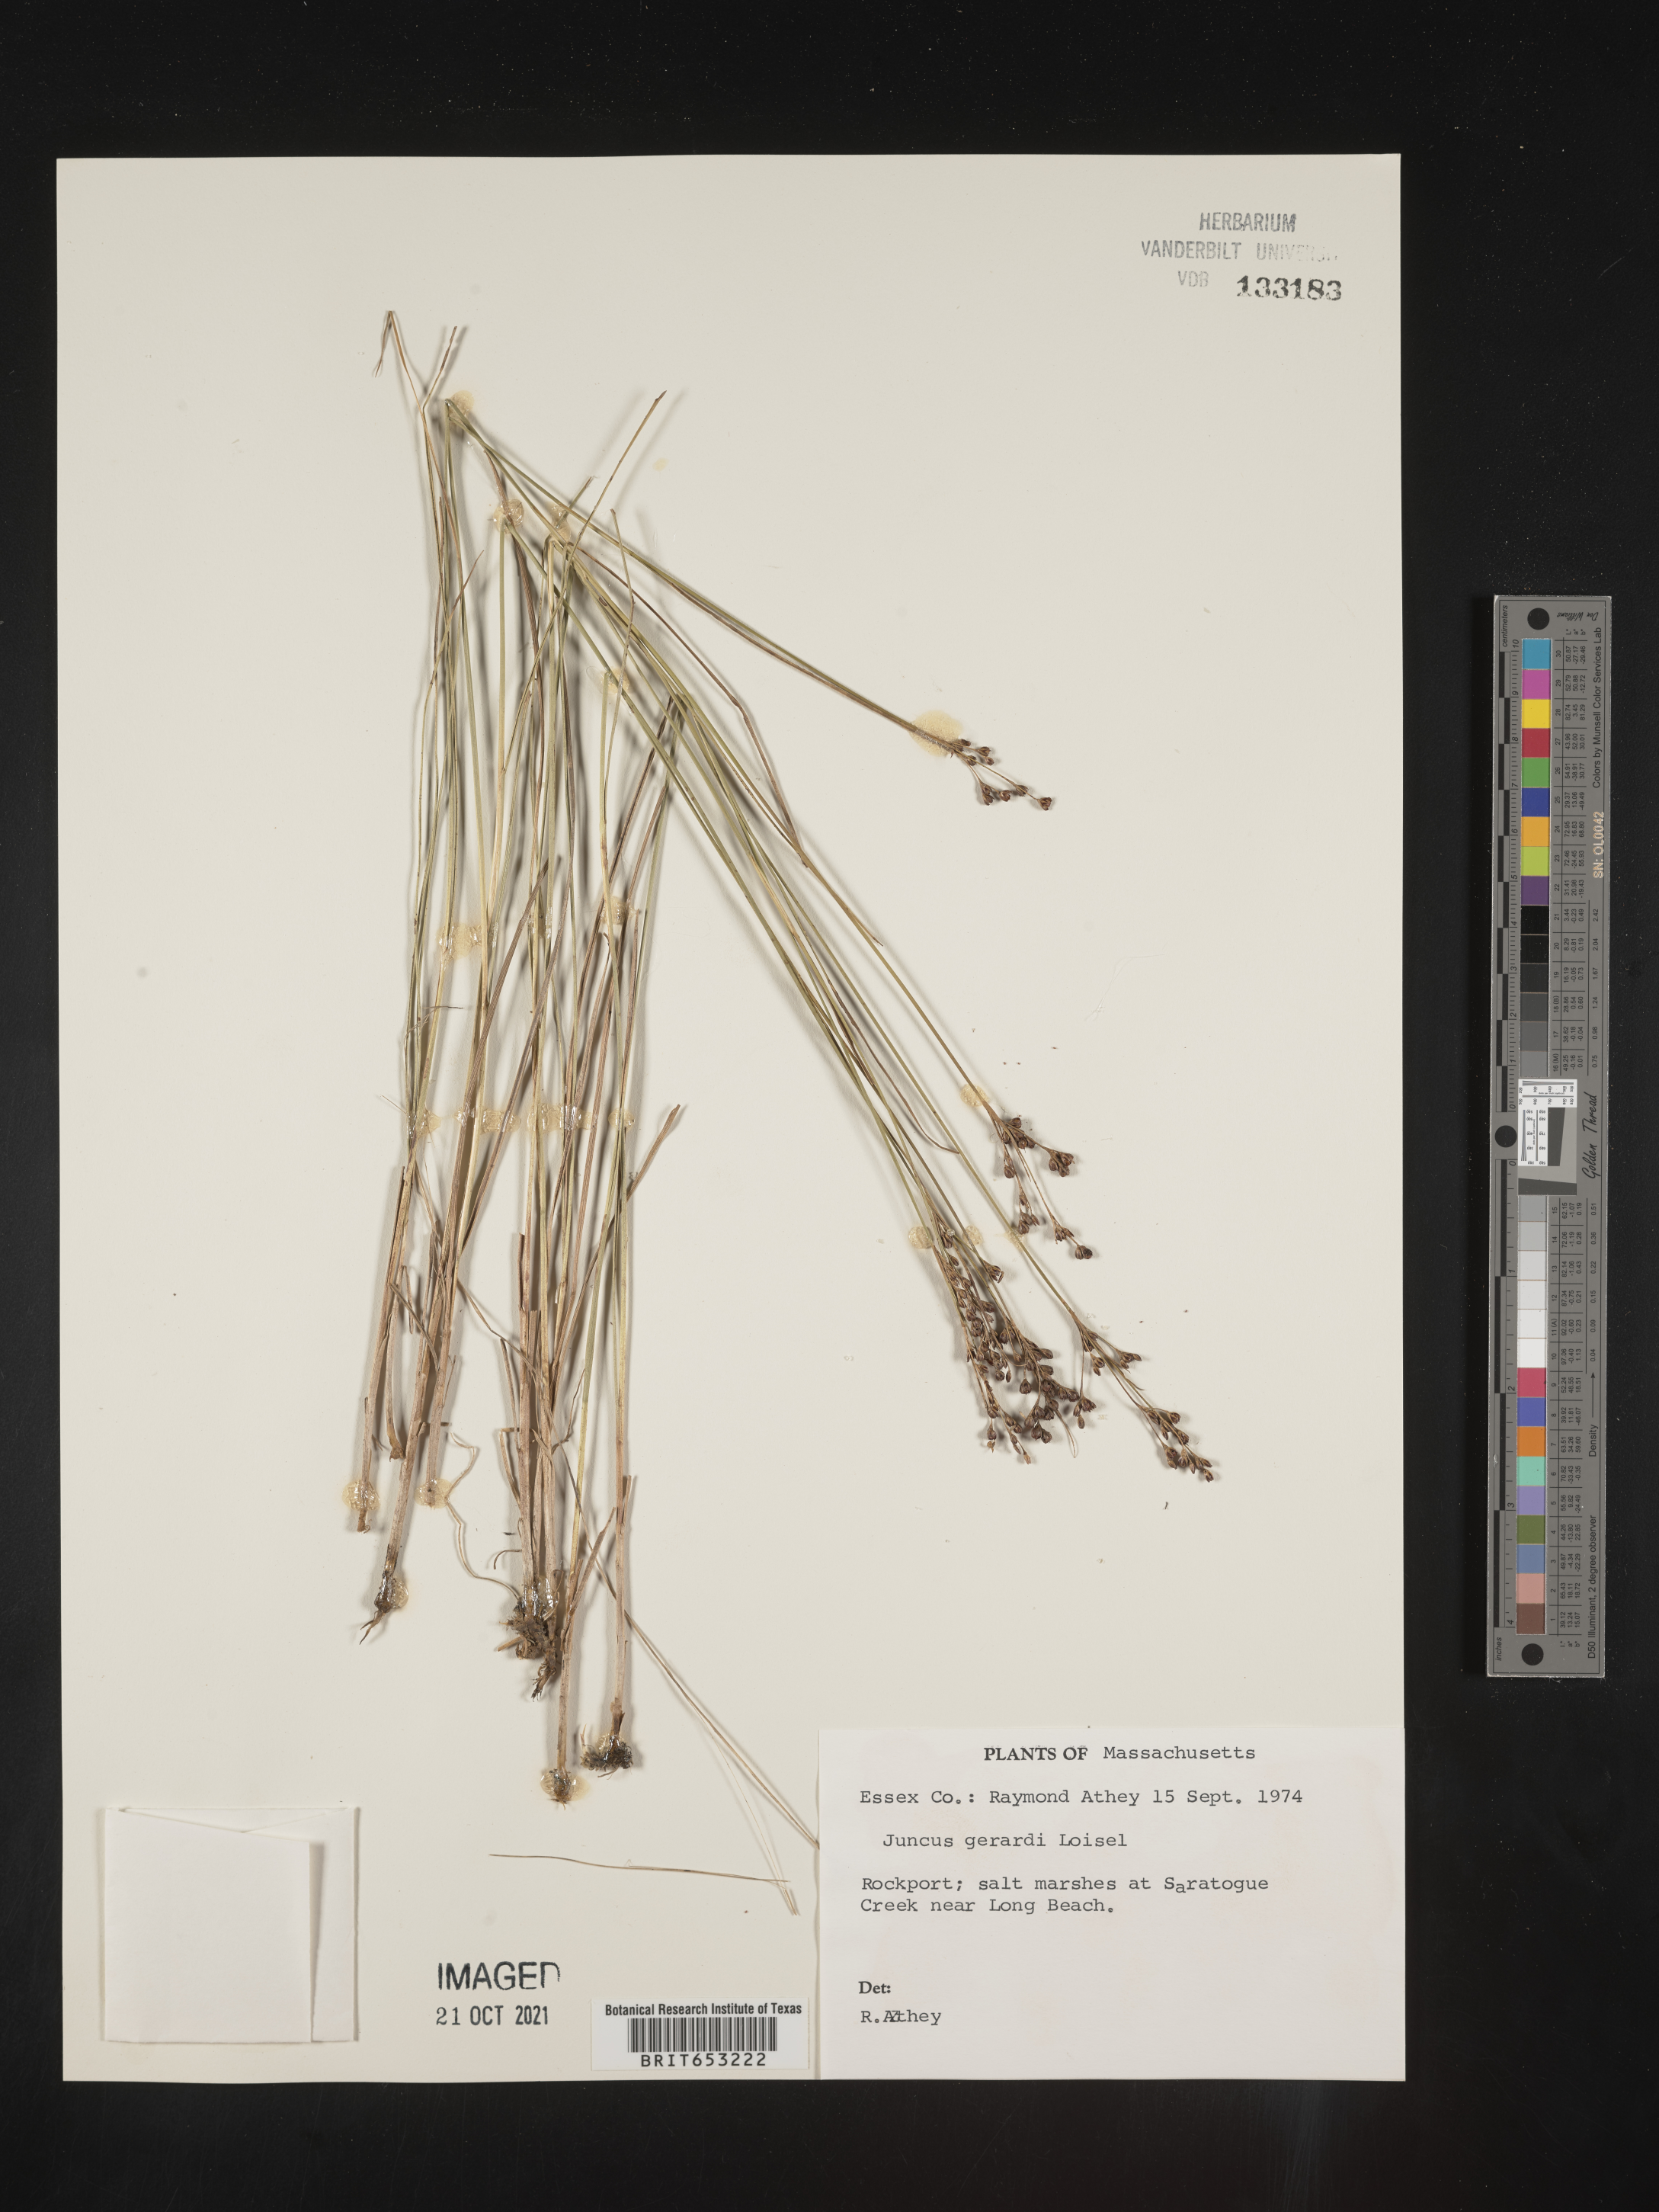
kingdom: Plantae
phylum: Tracheophyta
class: Liliopsida
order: Poales
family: Juncaceae
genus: Juncus
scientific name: Juncus gerardi
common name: Saltmarsh rush
